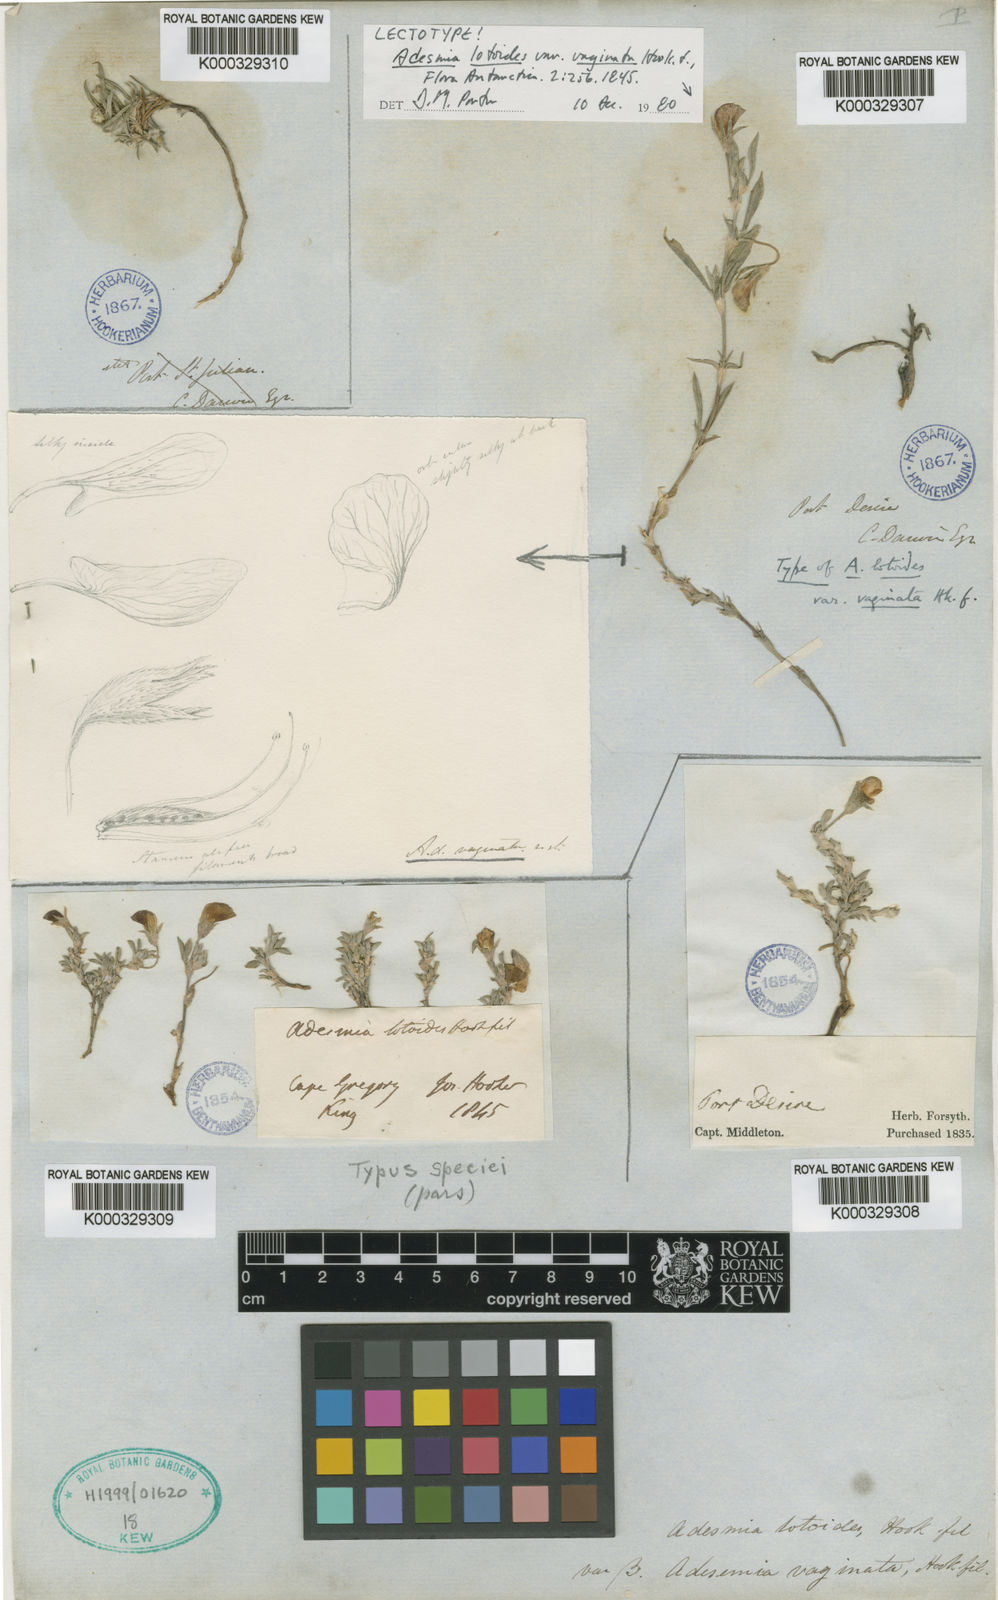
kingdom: Plantae
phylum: Tracheophyta
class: Magnoliopsida
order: Fabales
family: Fabaceae
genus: Adesmia
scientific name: Adesmia lotoides
